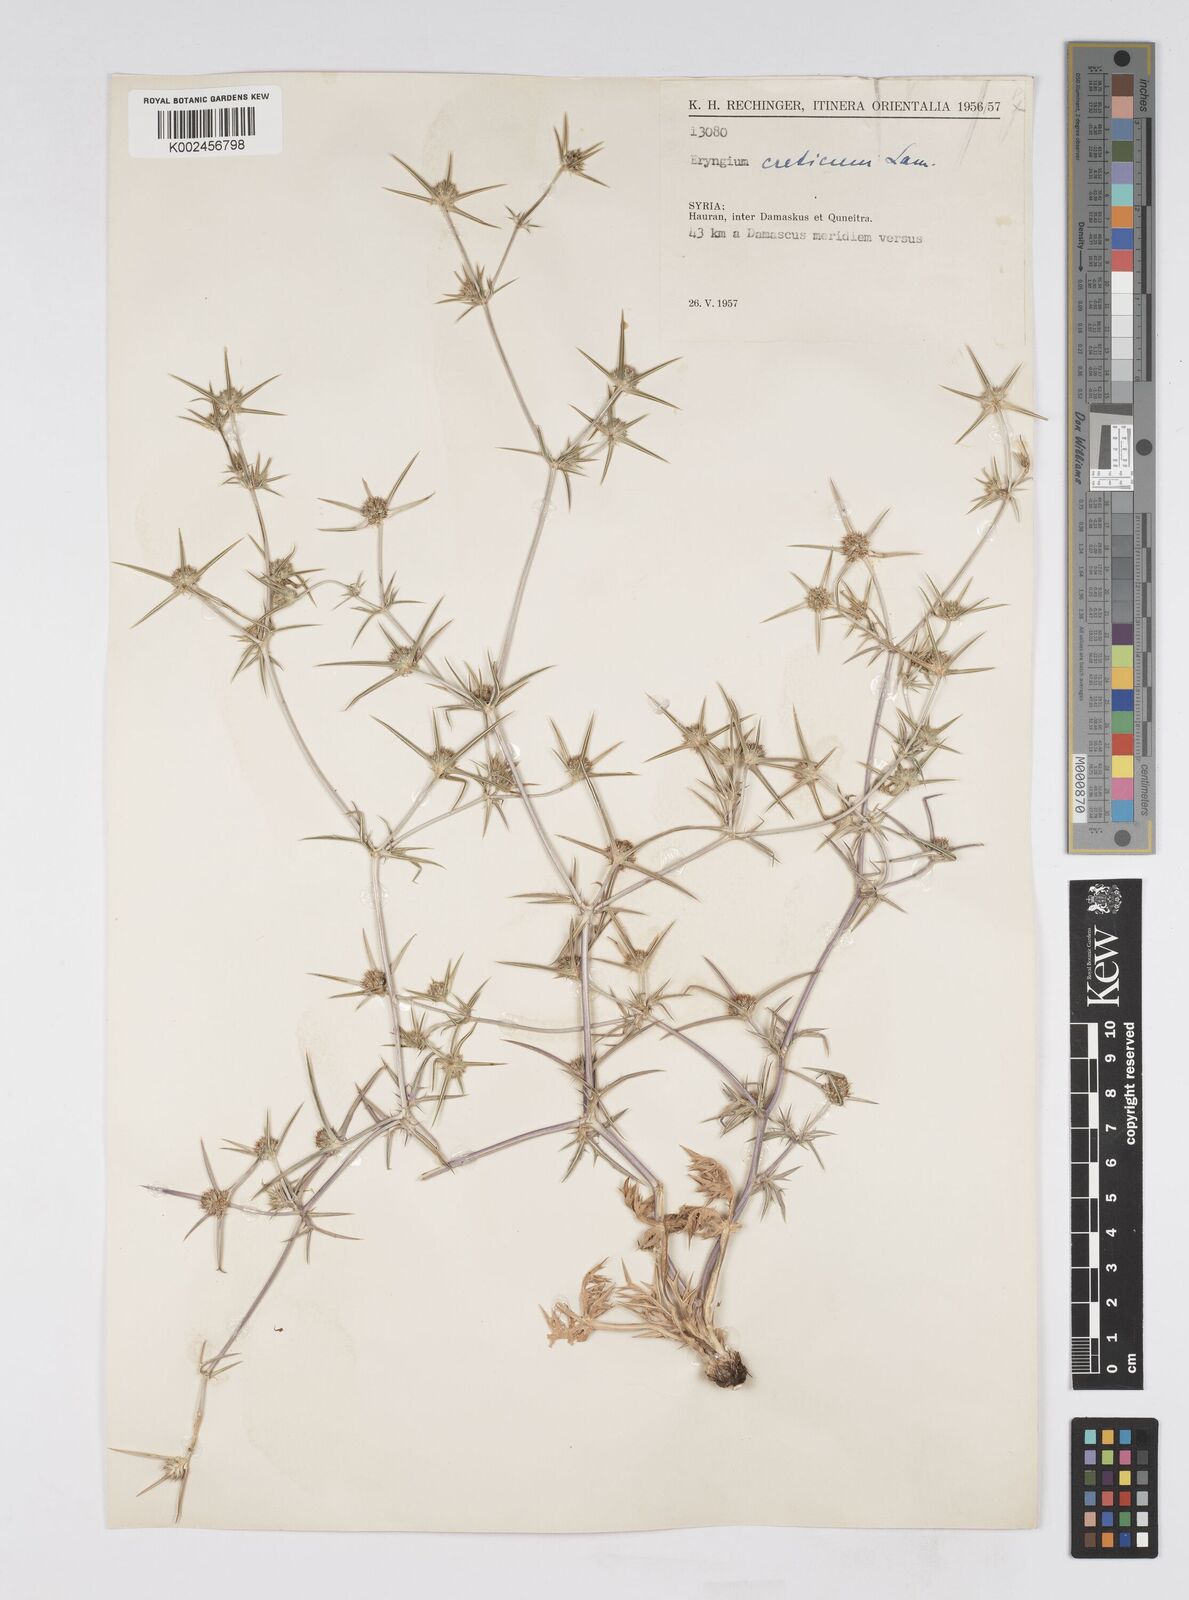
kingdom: Plantae
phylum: Tracheophyta
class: Magnoliopsida
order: Apiales
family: Apiaceae
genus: Eryngium
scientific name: Eryngium creticum
